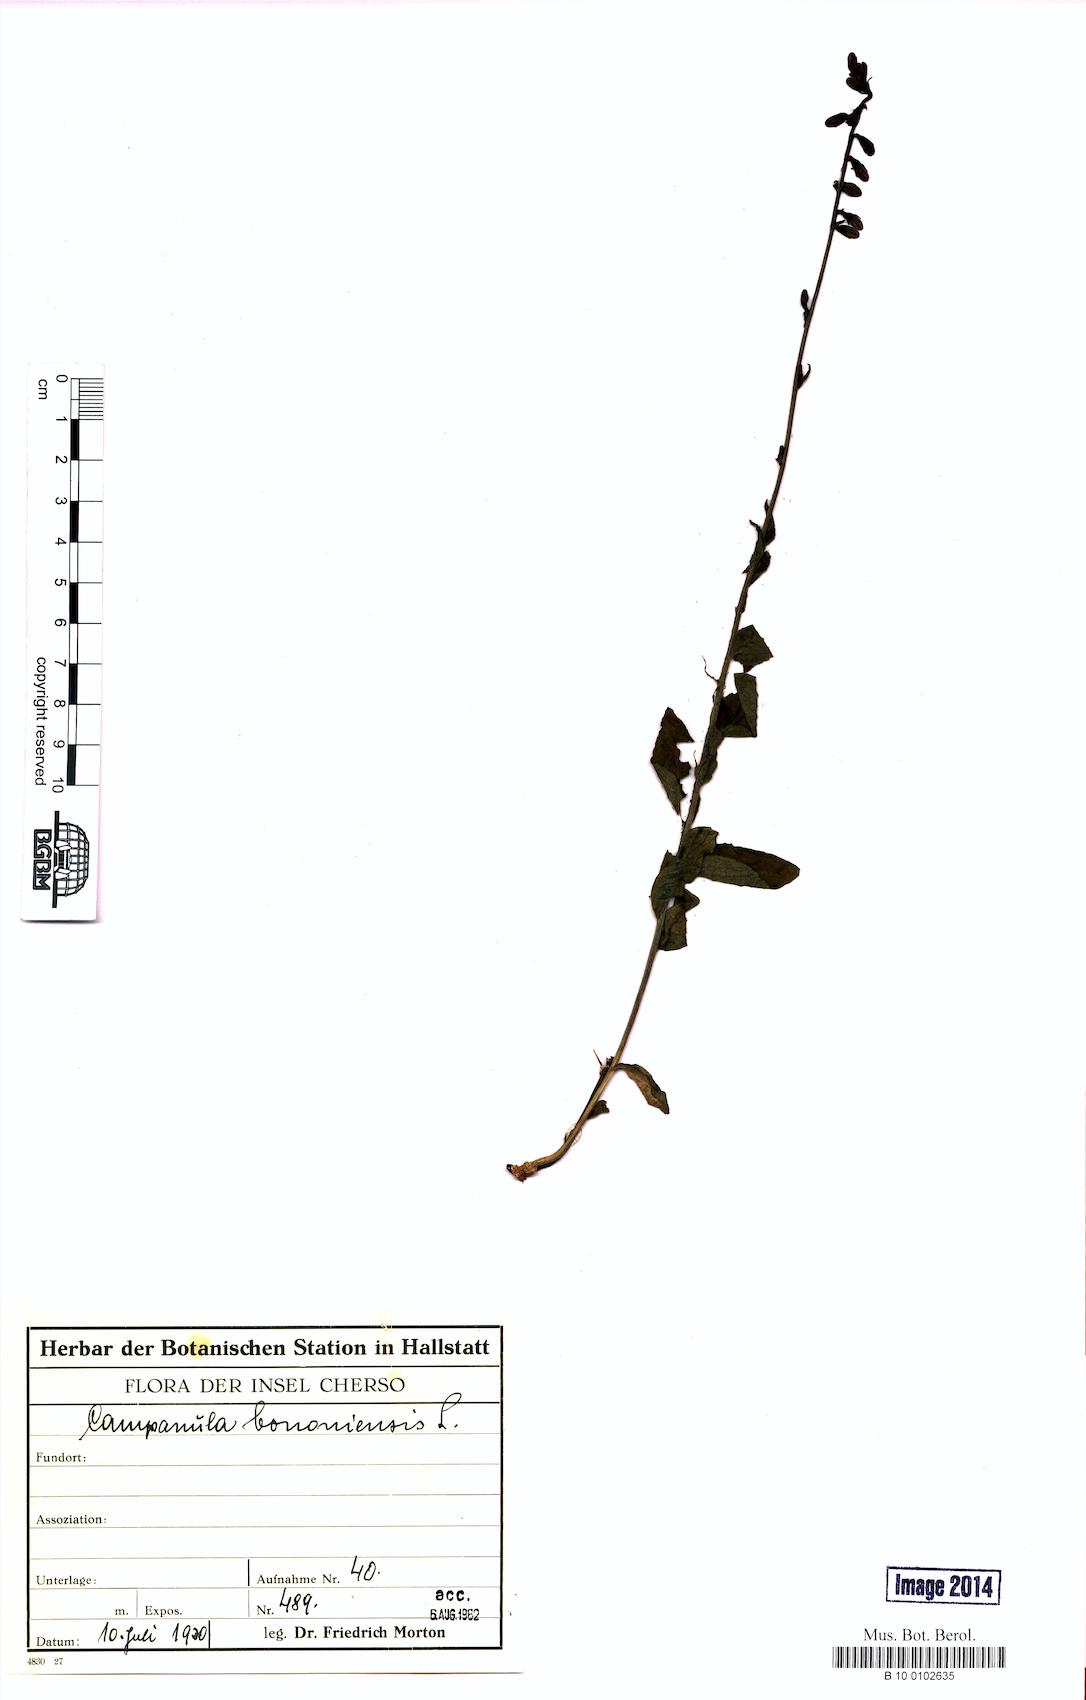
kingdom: Plantae
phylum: Tracheophyta
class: Magnoliopsida
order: Asterales
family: Campanulaceae
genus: Campanula
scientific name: Campanula bononiensis
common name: Pale bellflower
